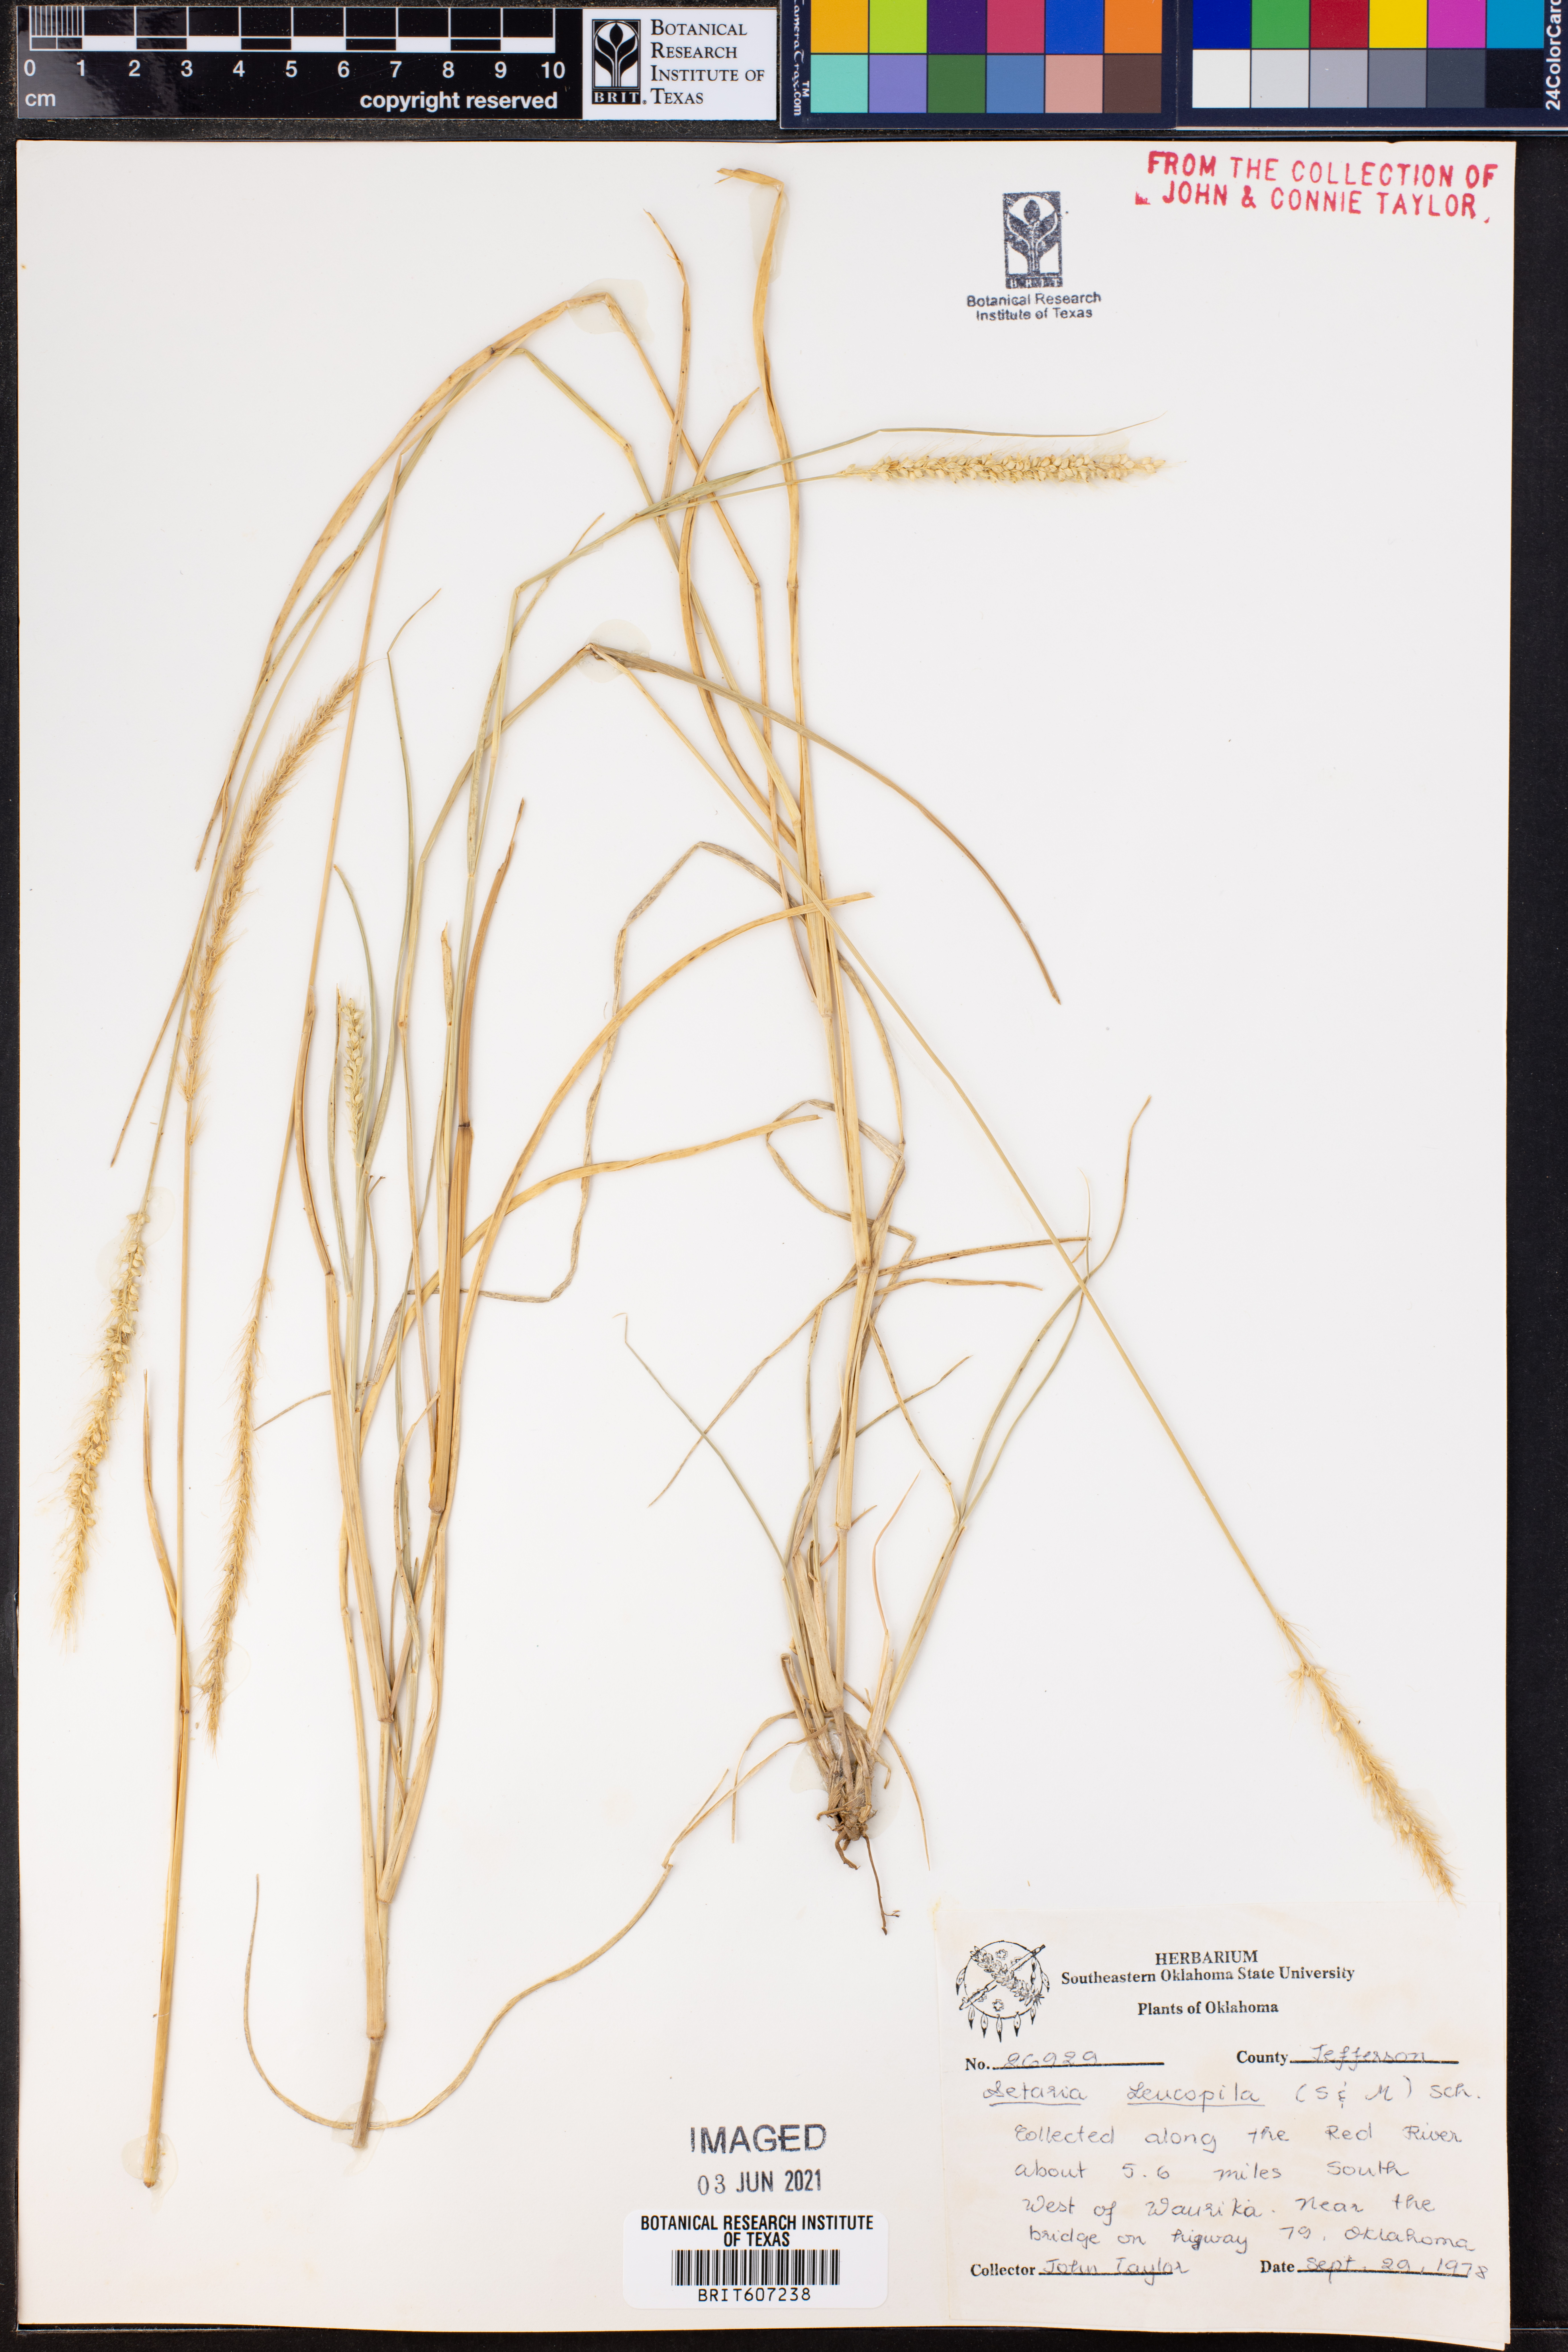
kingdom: Plantae
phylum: Tracheophyta
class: Liliopsida
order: Poales
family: Poaceae
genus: Setaria
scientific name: Setaria leucopila
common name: Plains bristle grass
